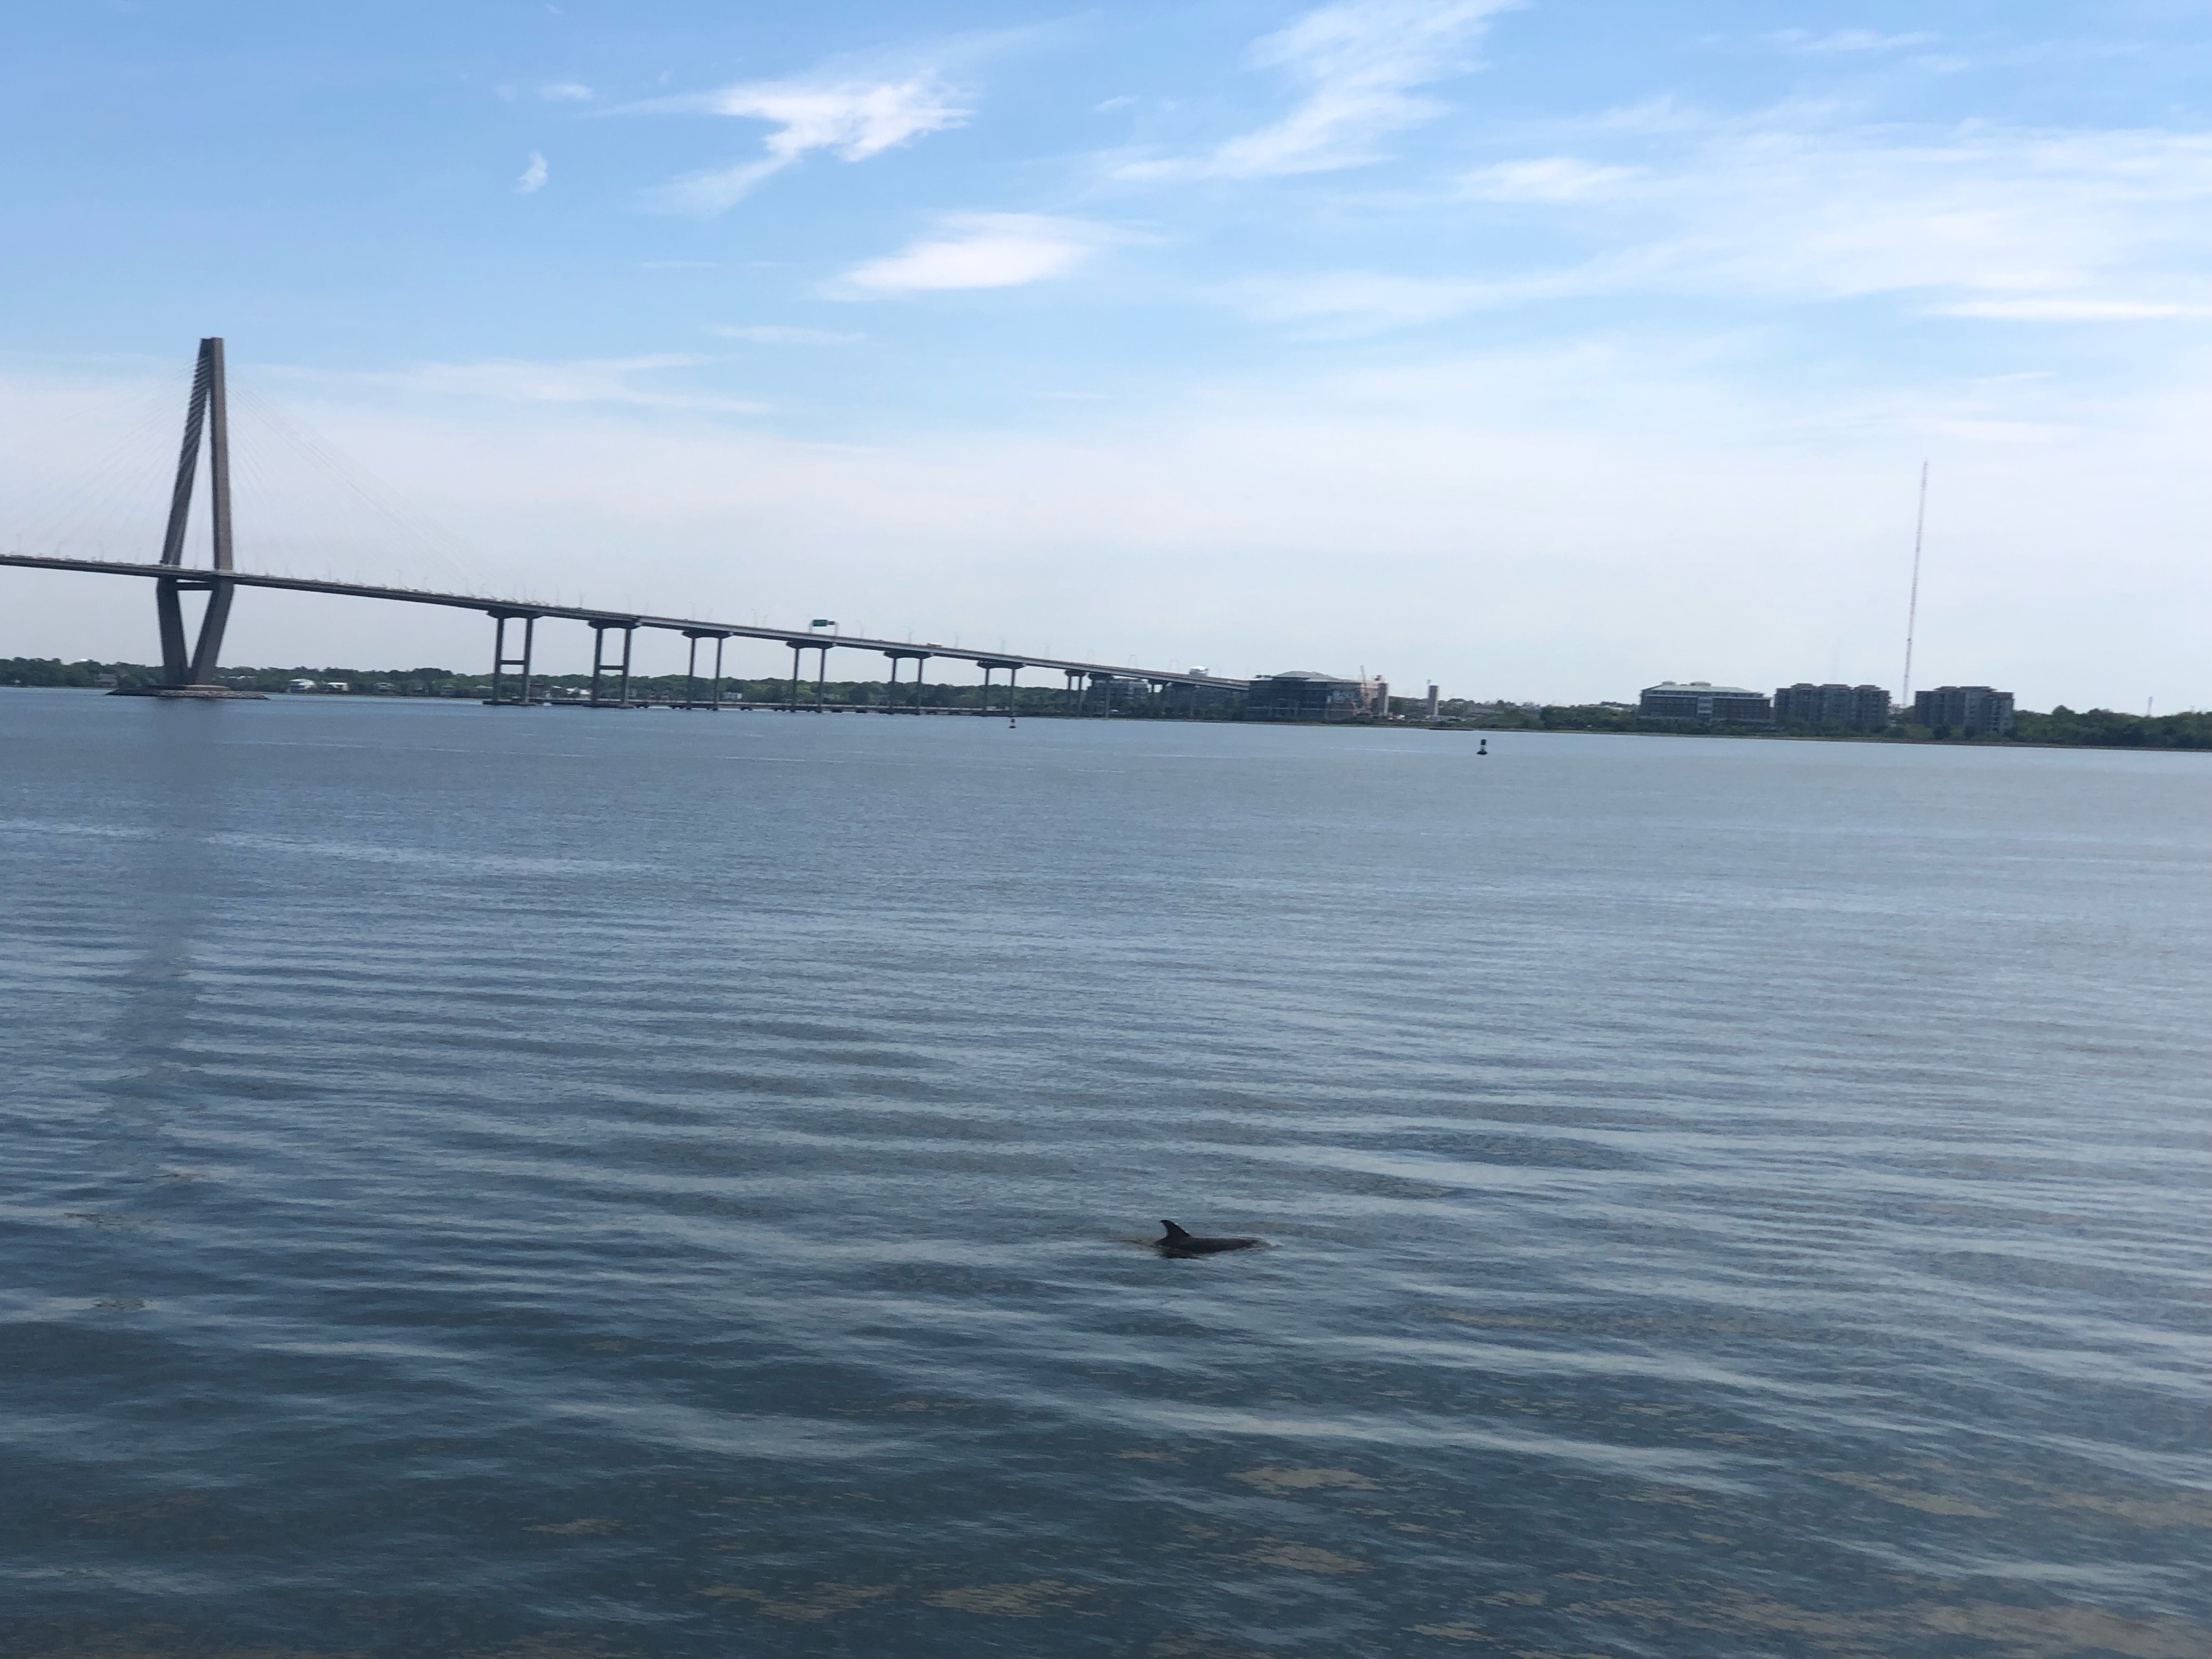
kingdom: Animalia
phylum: Chordata
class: Mammalia
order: Cetacea
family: Delphinidae
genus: Tursiops
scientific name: Tursiops truncatus
